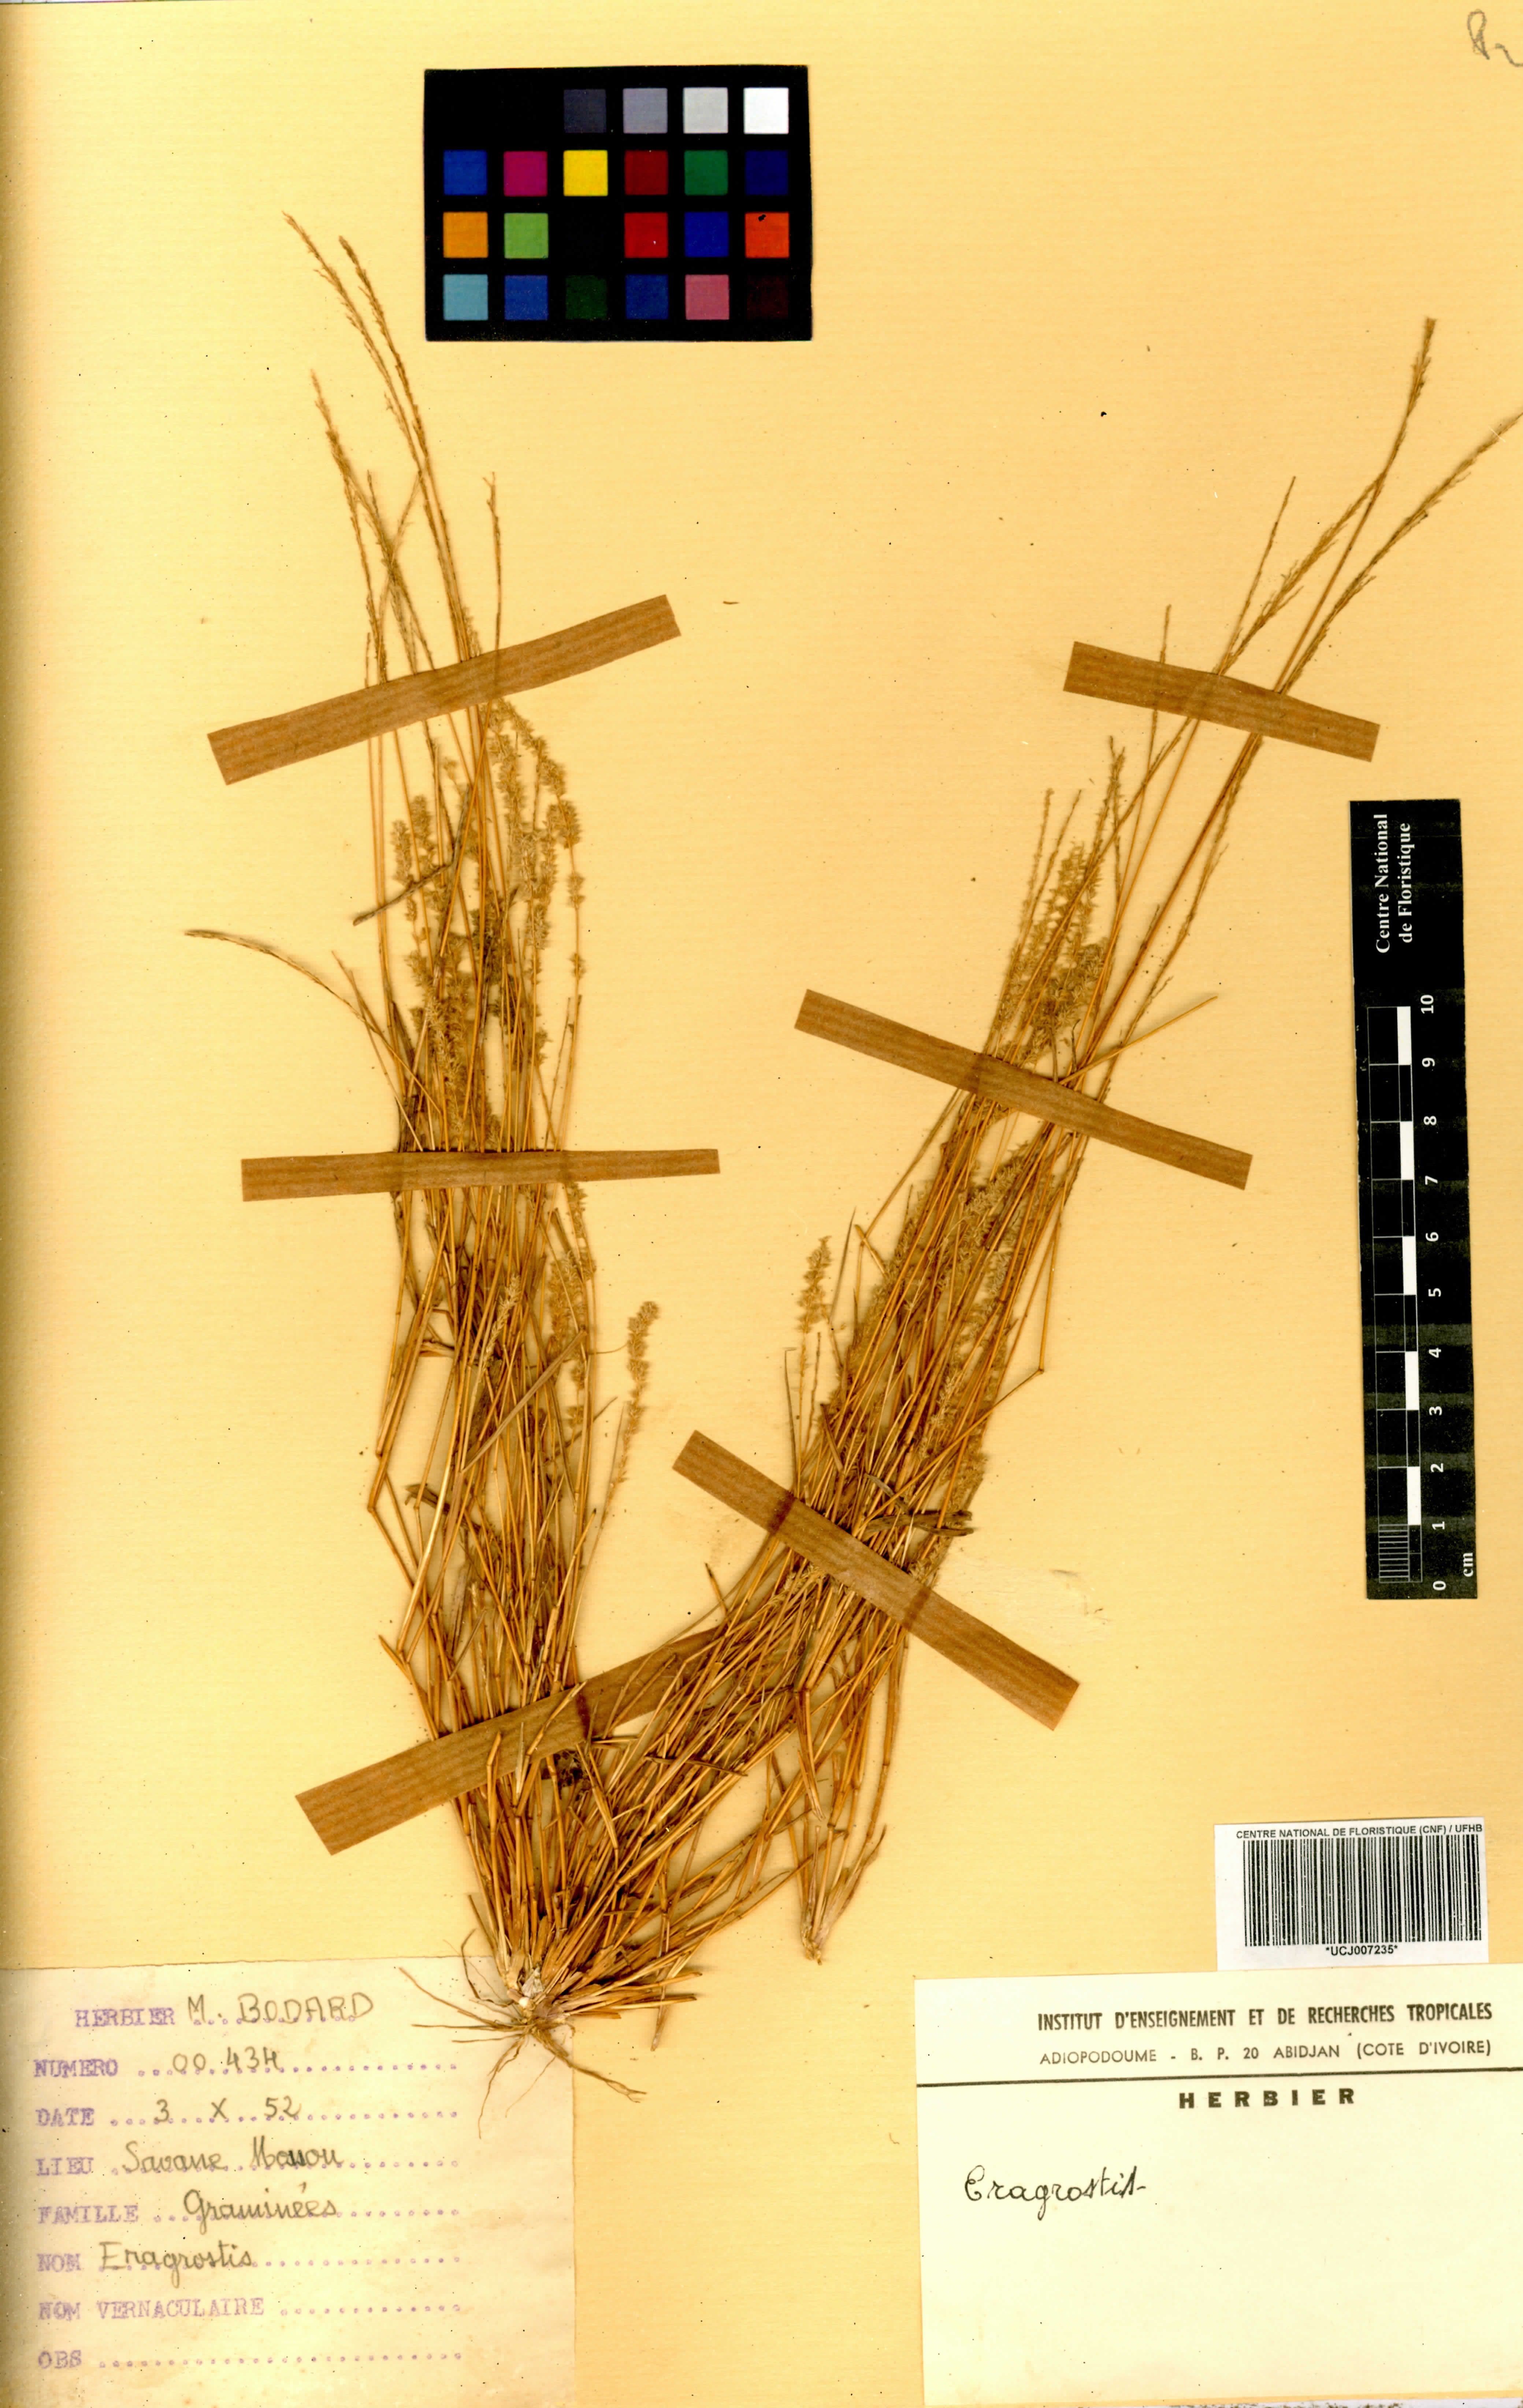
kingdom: Plantae
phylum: Tracheophyta
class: Liliopsida
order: Poales
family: Poaceae
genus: Eragrostis
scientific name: Eragrostis
